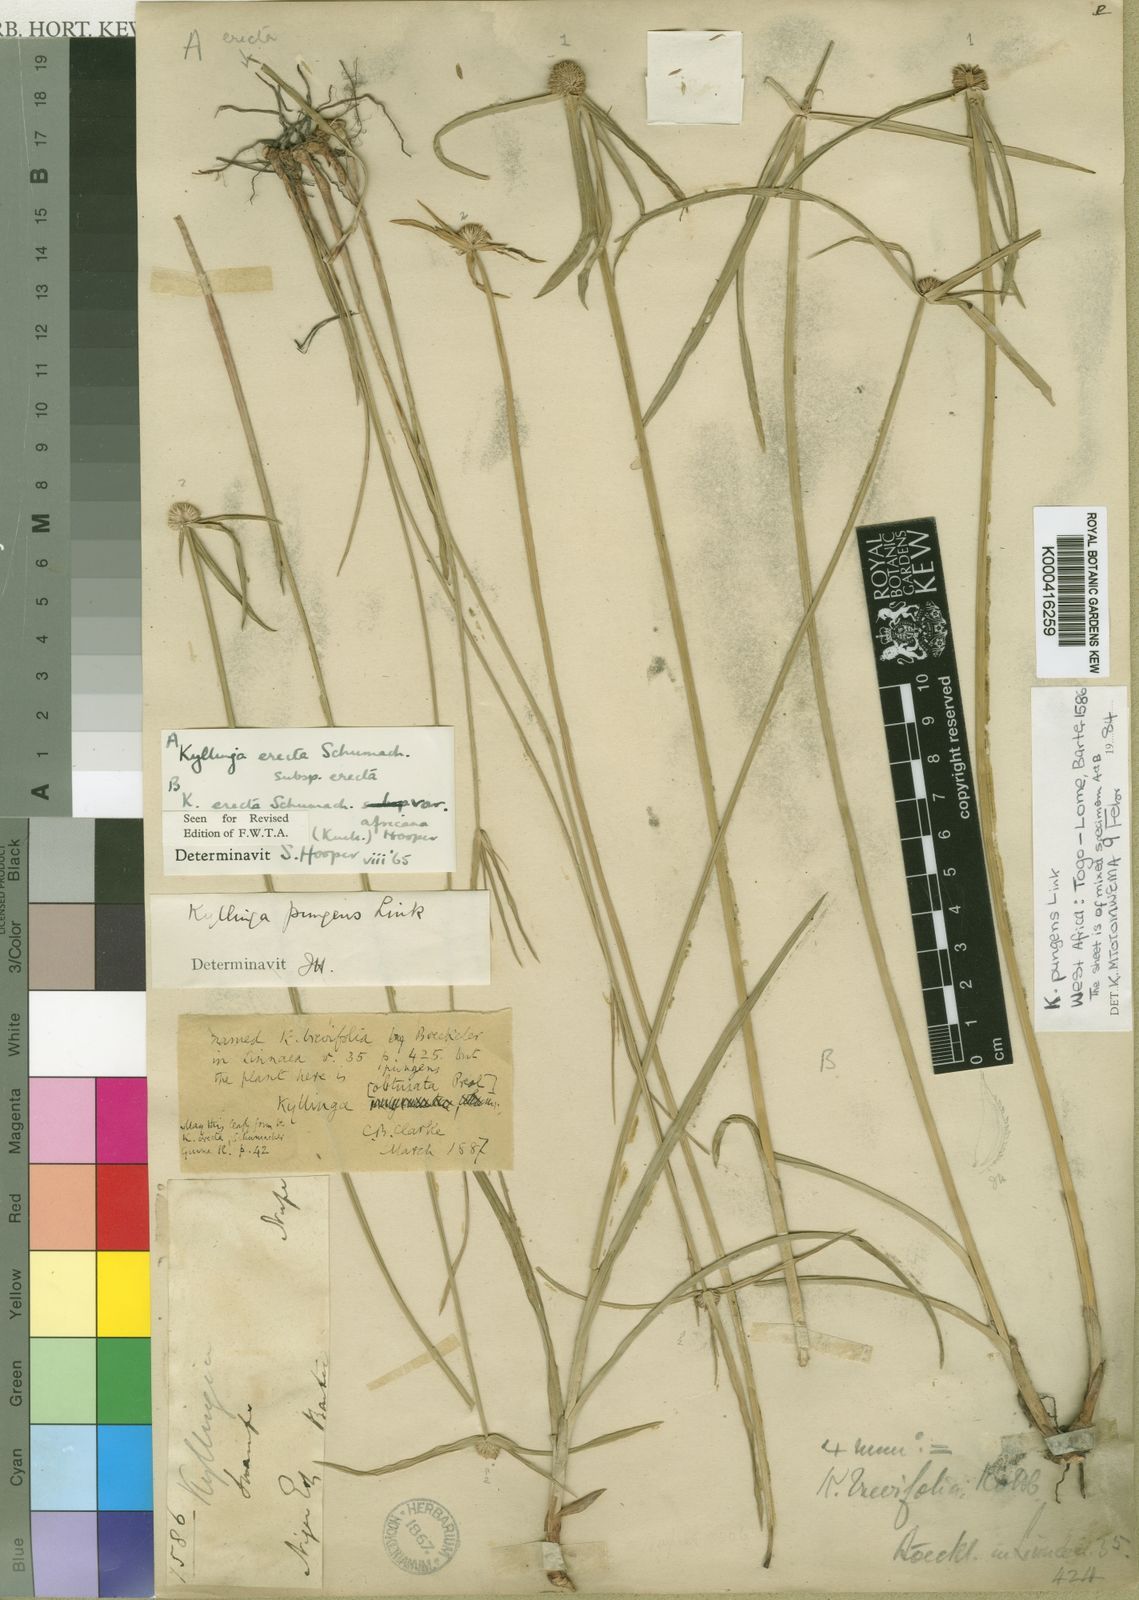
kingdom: Plantae
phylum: Tracheophyta
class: Liliopsida
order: Poales
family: Cyperaceae
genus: Cyperus
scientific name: Cyperus obtusatus
